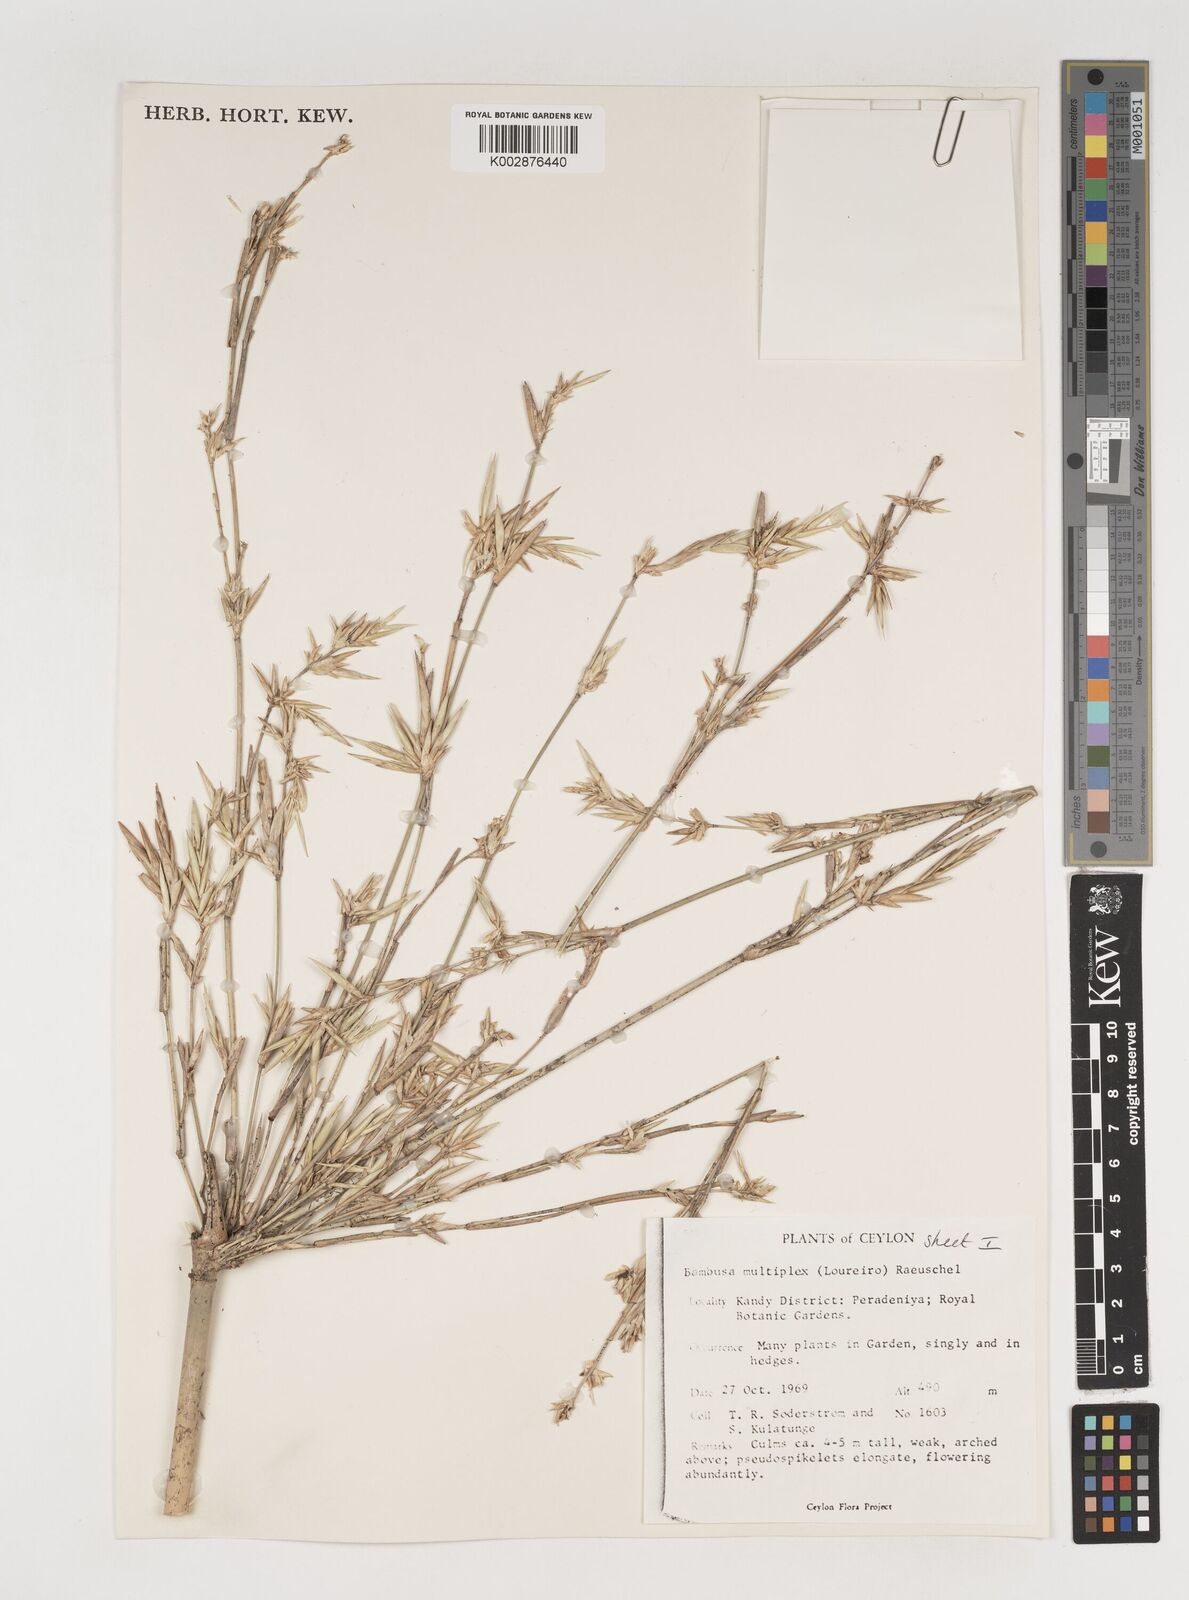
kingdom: Plantae
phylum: Tracheophyta
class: Liliopsida
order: Poales
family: Poaceae
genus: Bambusa
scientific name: Bambusa multiplex
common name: Hedge bamboo
